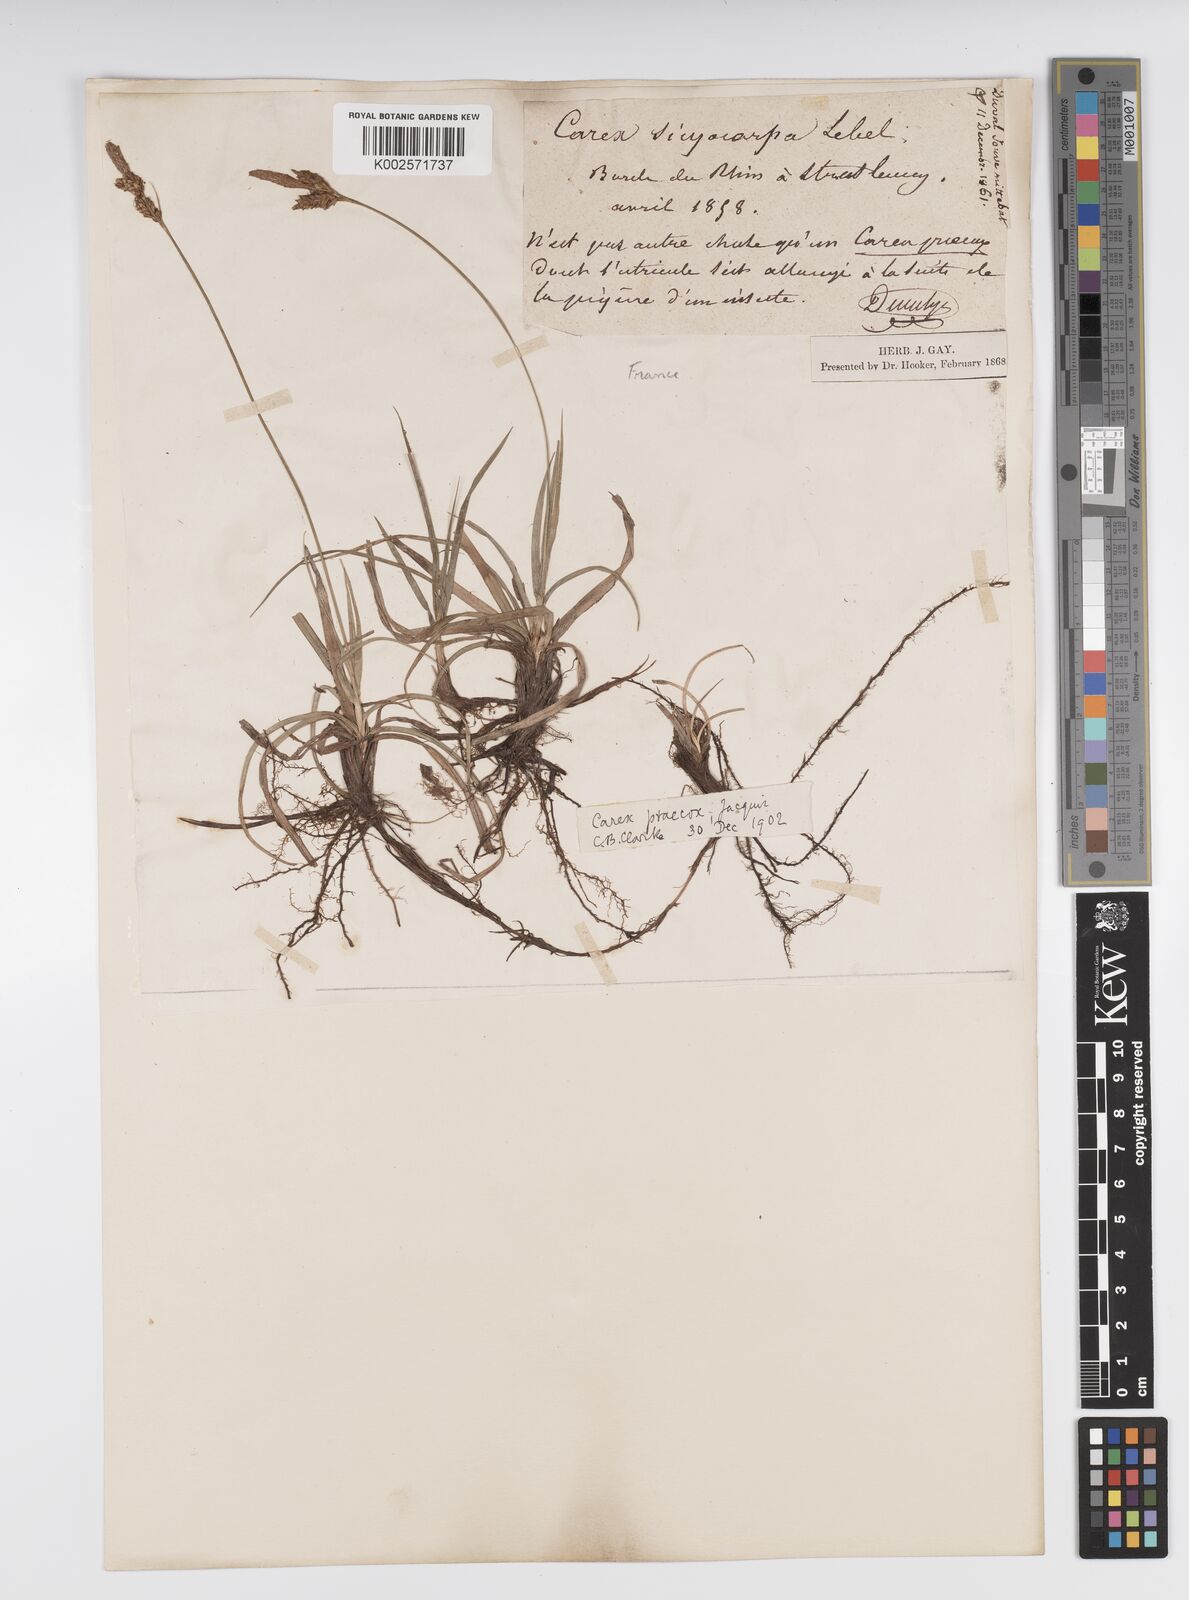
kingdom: Plantae
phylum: Tracheophyta
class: Liliopsida
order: Poales
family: Cyperaceae
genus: Carex
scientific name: Carex caryophyllea
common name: Spring sedge
